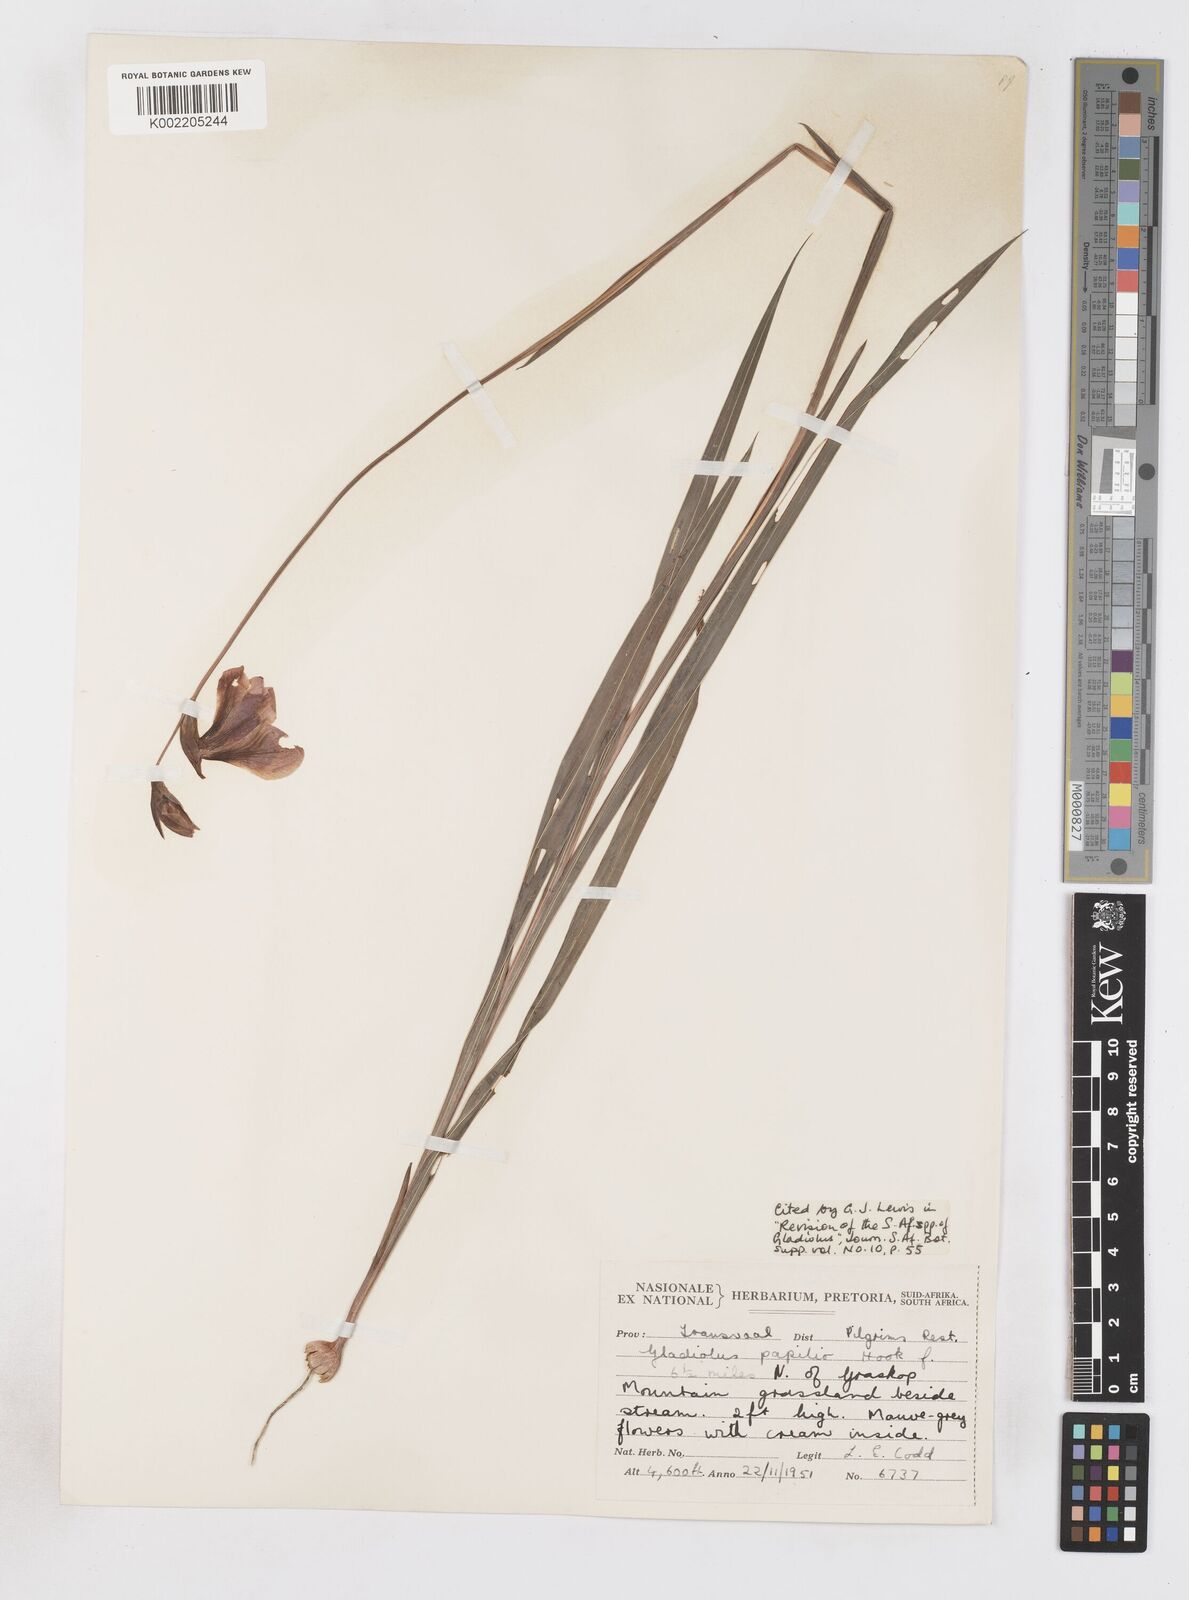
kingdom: Plantae
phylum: Tracheophyta
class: Liliopsida
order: Asparagales
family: Iridaceae
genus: Gladiolus
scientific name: Gladiolus papilio
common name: Goldblotch gladiolus
